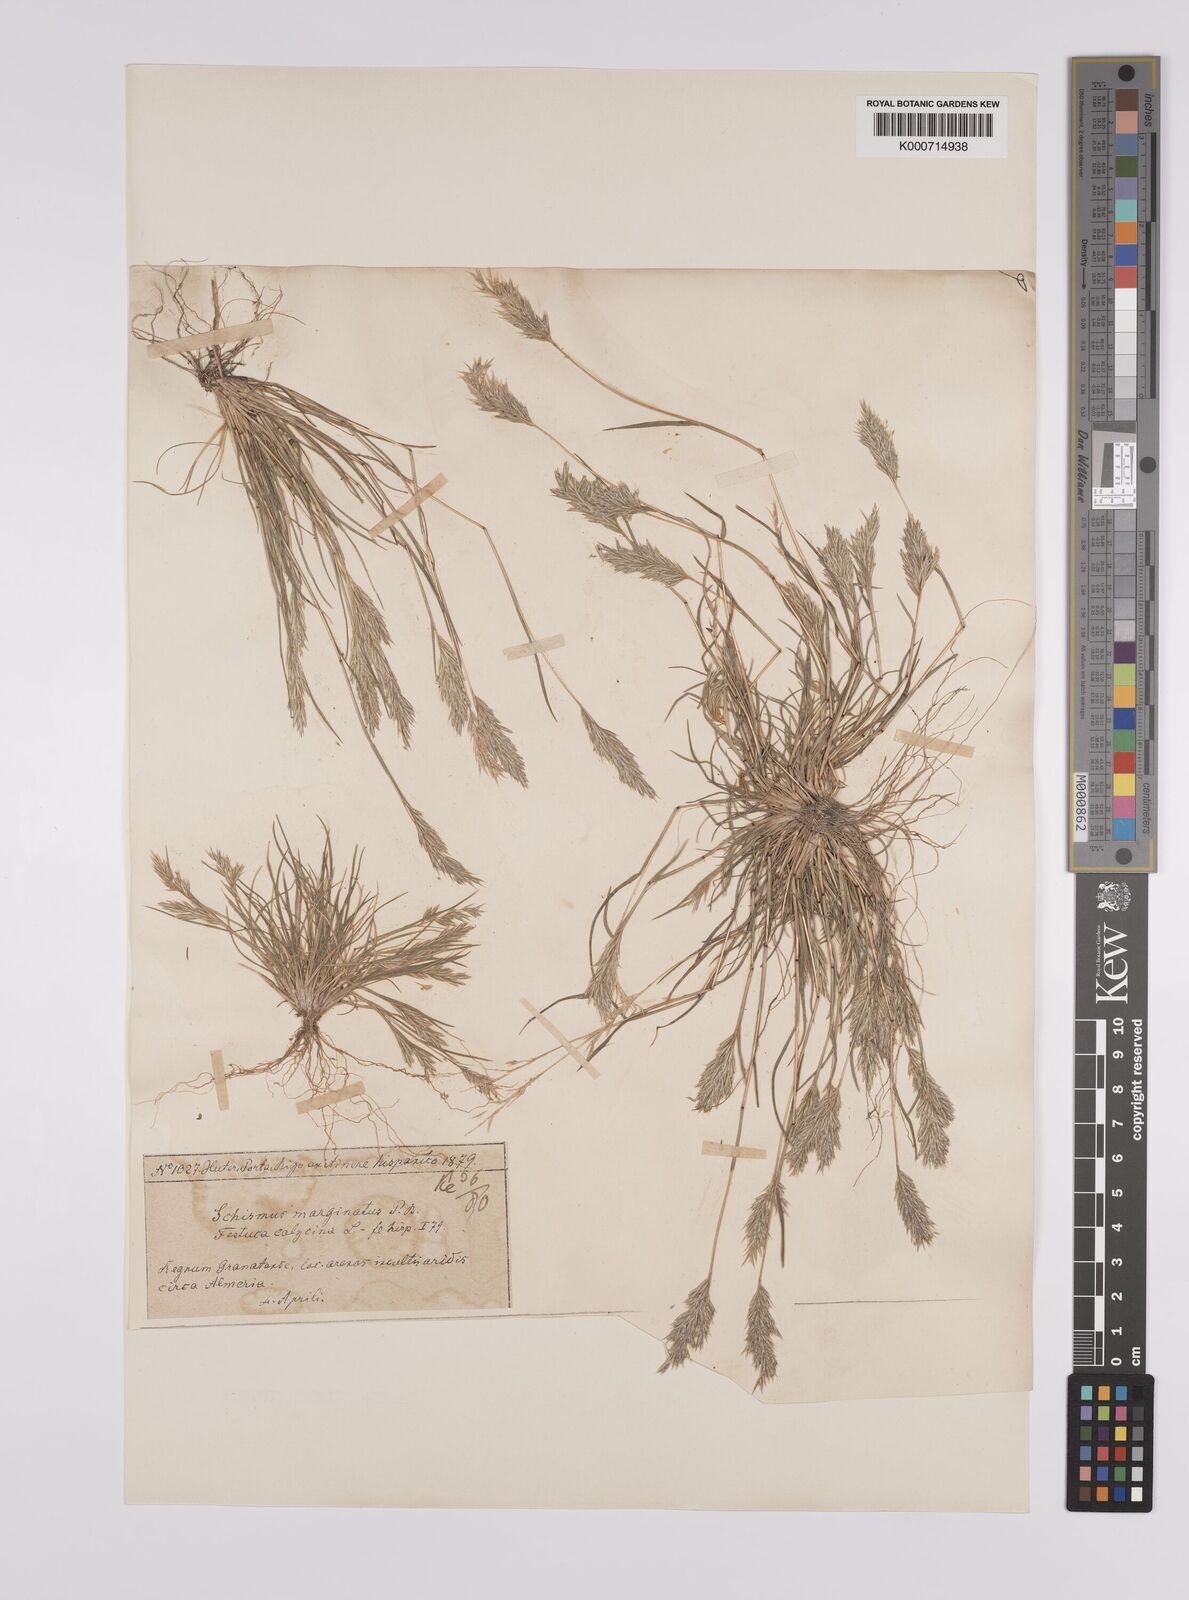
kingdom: Plantae
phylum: Tracheophyta
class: Liliopsida
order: Poales
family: Poaceae
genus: Schismus
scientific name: Schismus barbatus
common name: Kelch-grass
